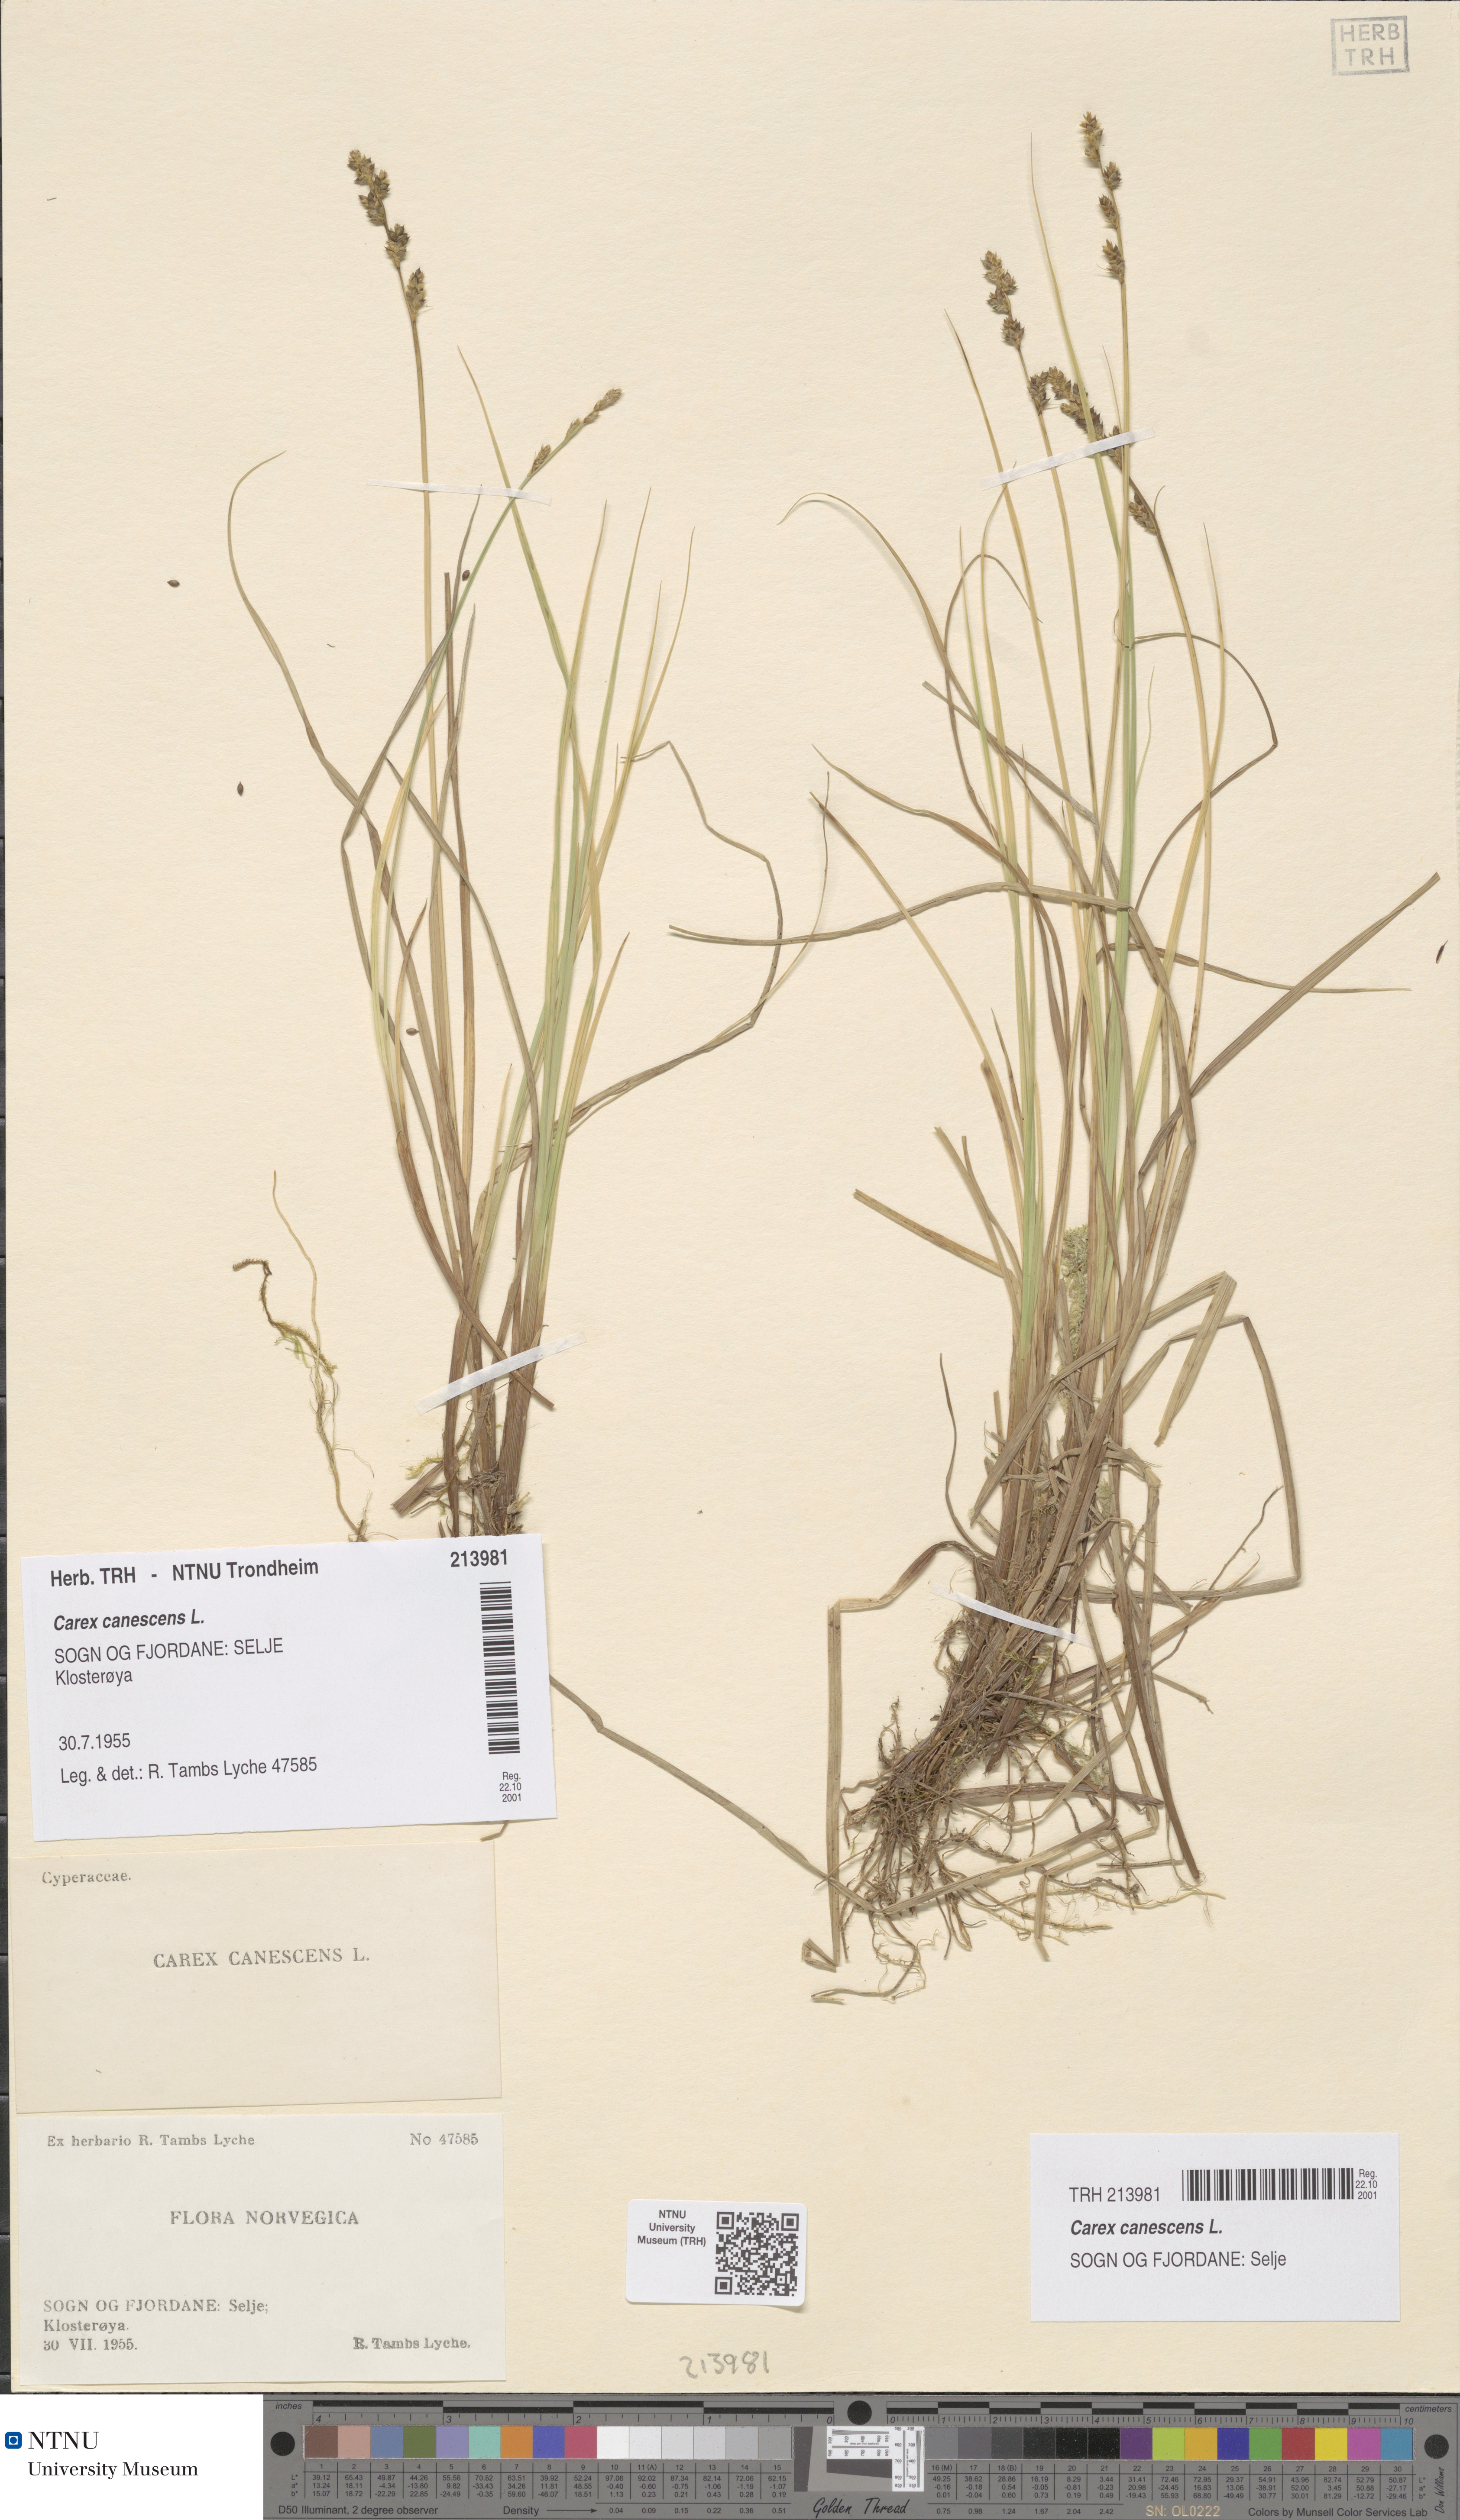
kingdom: Plantae
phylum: Tracheophyta
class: Liliopsida
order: Poales
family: Cyperaceae
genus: Carex
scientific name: Carex canescens
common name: White sedge
